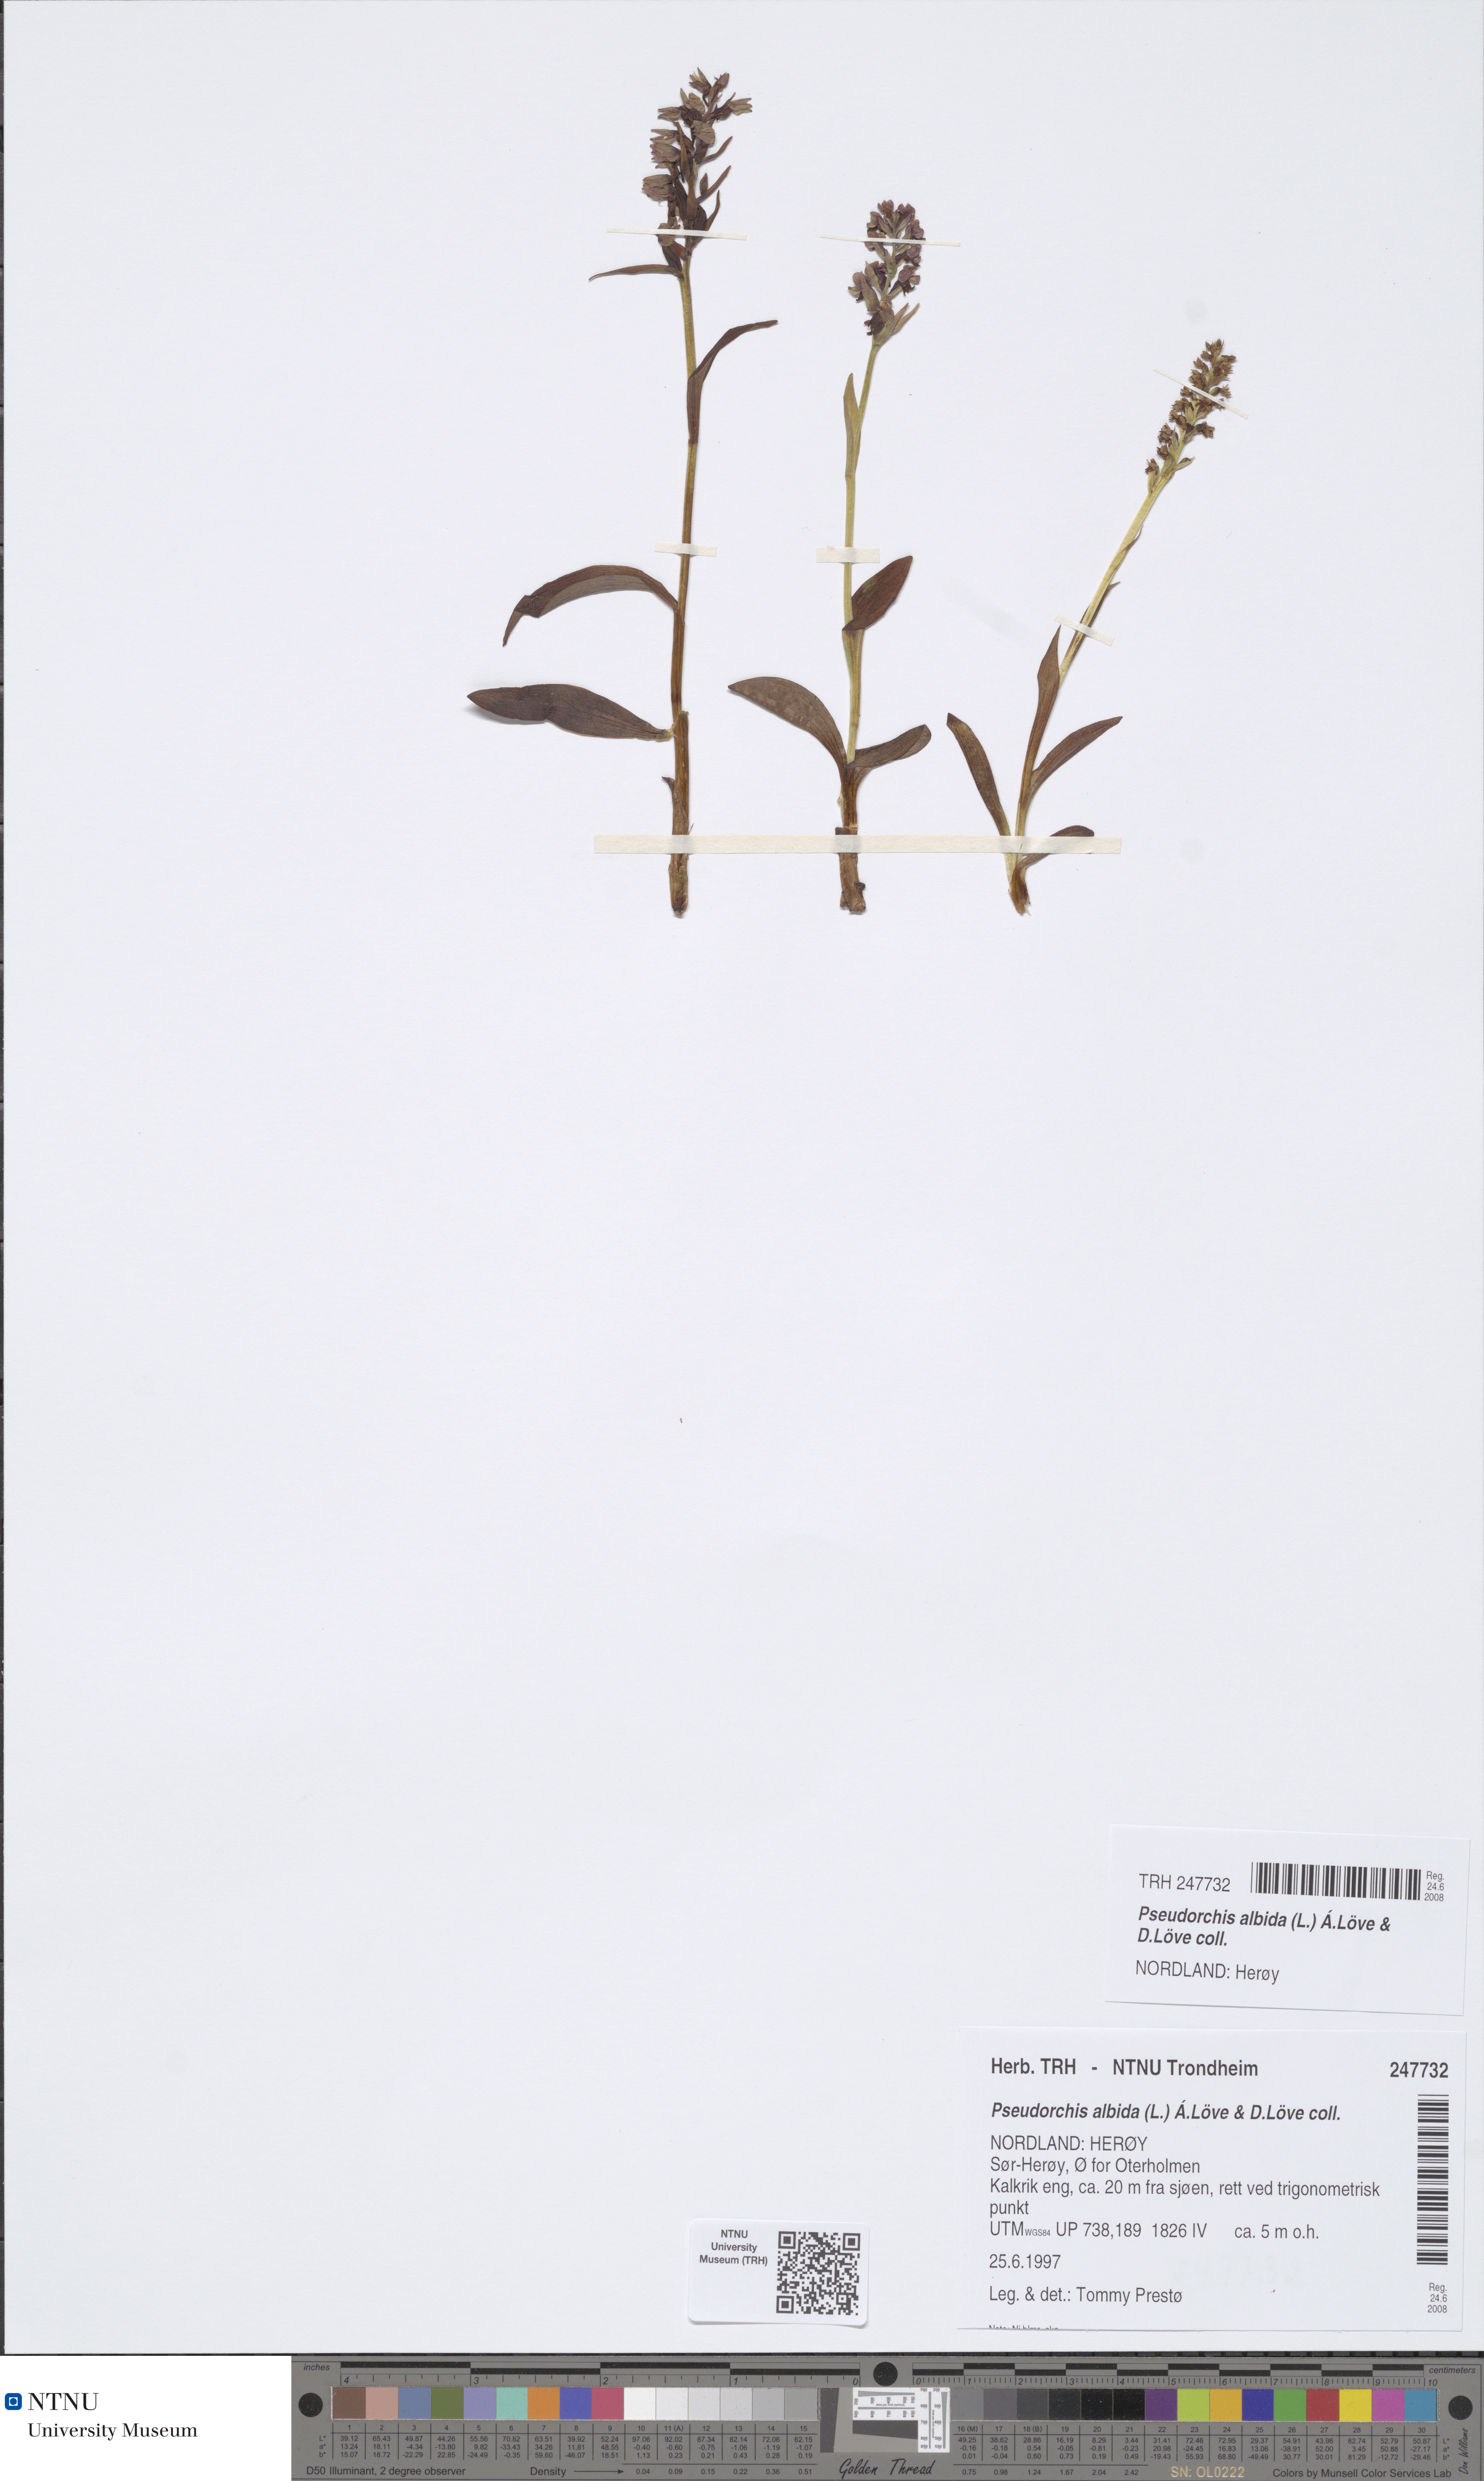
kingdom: Plantae
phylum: Tracheophyta
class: Liliopsida
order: Asparagales
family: Orchidaceae
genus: Pseudorchis
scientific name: Pseudorchis albida
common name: Small-white orchid
